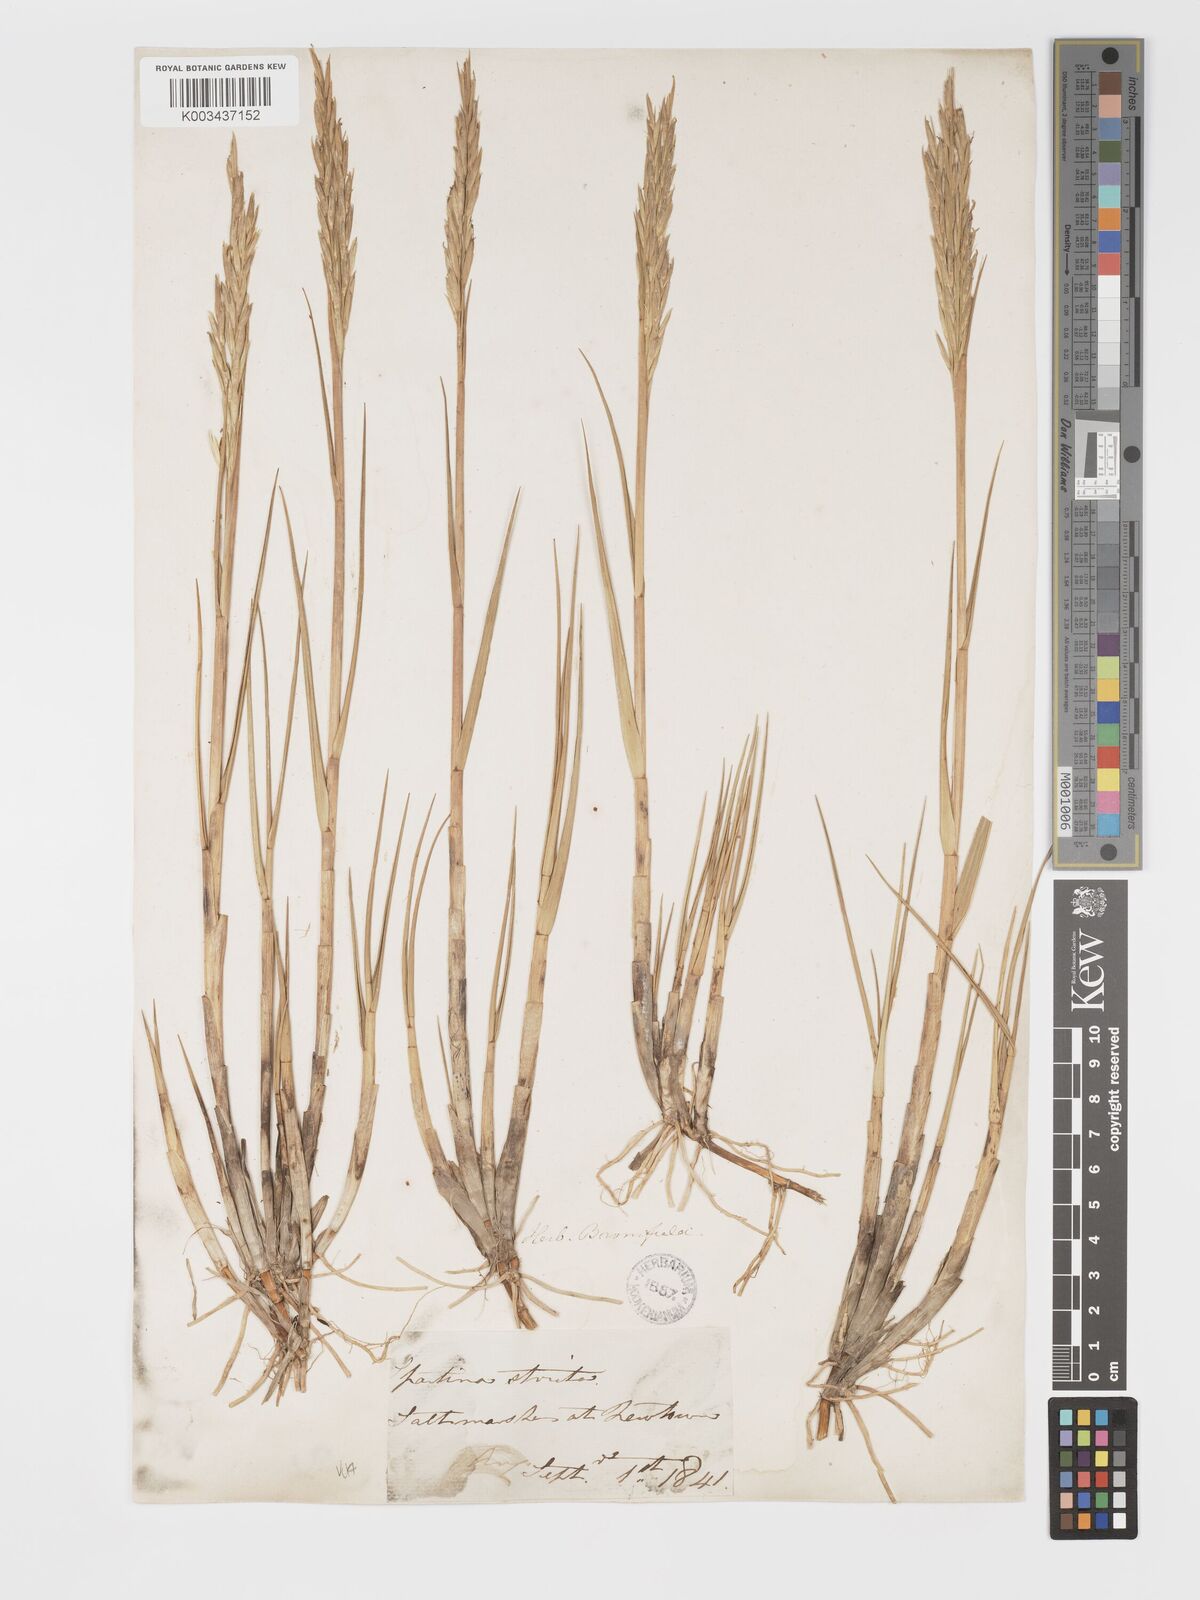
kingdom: Plantae
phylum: Tracheophyta
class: Liliopsida
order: Poales
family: Poaceae
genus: Sporobolus
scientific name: Sporobolus maritimus
